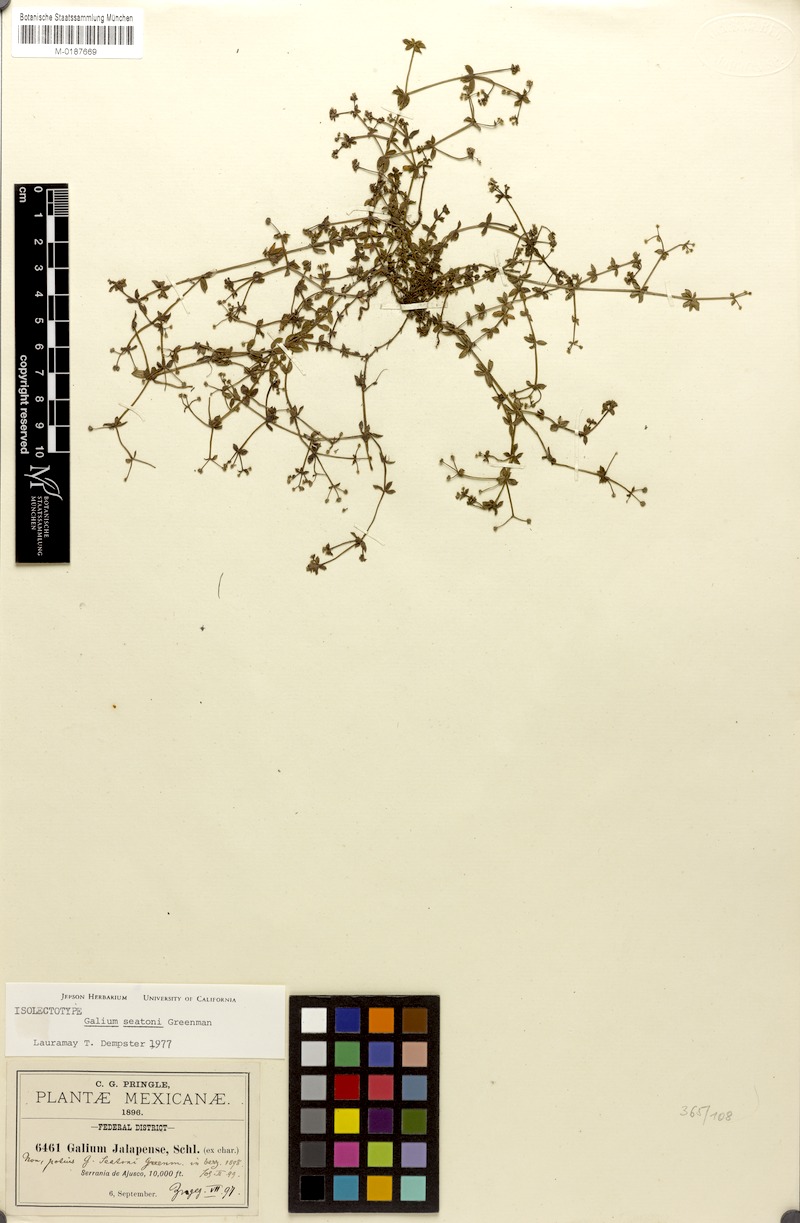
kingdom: Plantae
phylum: Tracheophyta
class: Magnoliopsida
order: Gentianales
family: Rubiaceae
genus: Galium
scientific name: Galium seatonii
